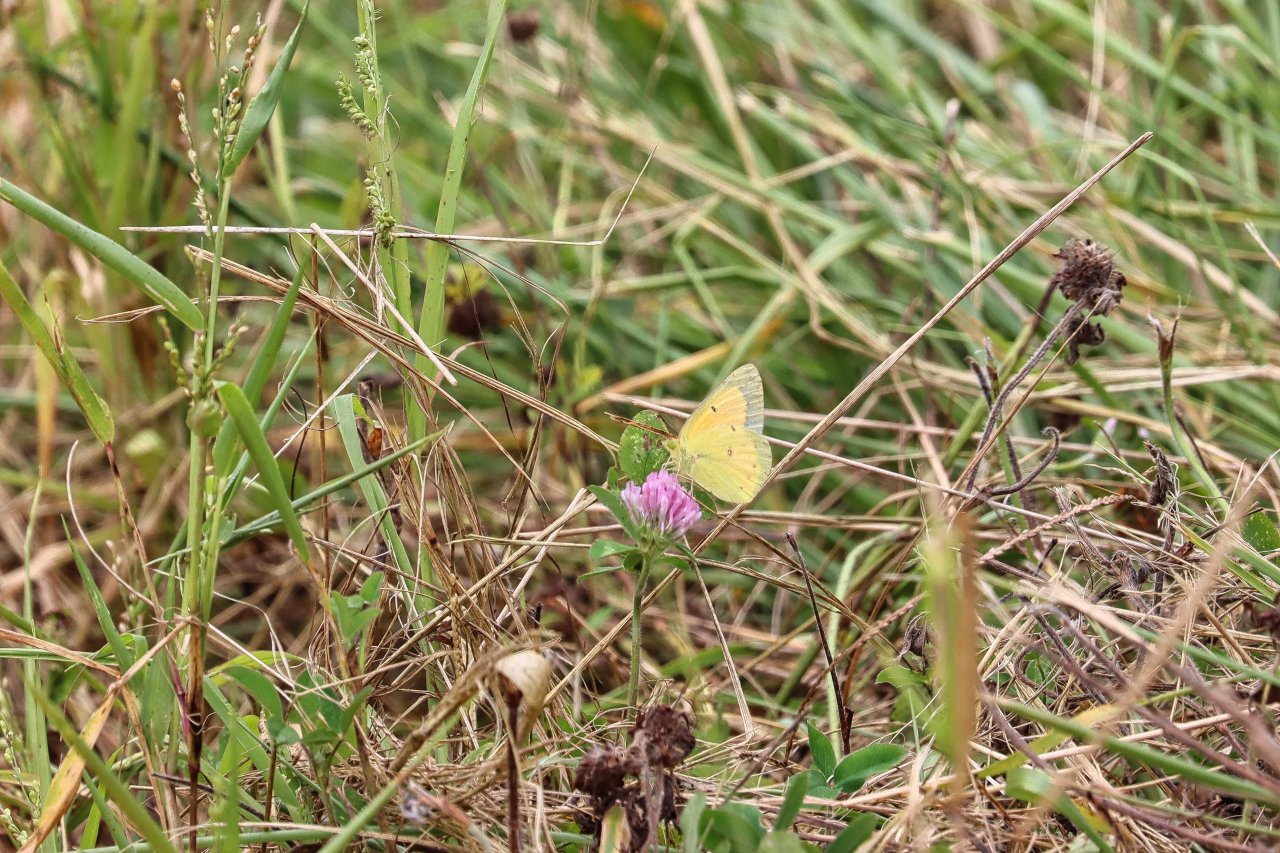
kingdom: Animalia
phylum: Arthropoda
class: Insecta
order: Lepidoptera
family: Pieridae
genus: Colias
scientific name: Colias eurytheme
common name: Orange Sulphur
